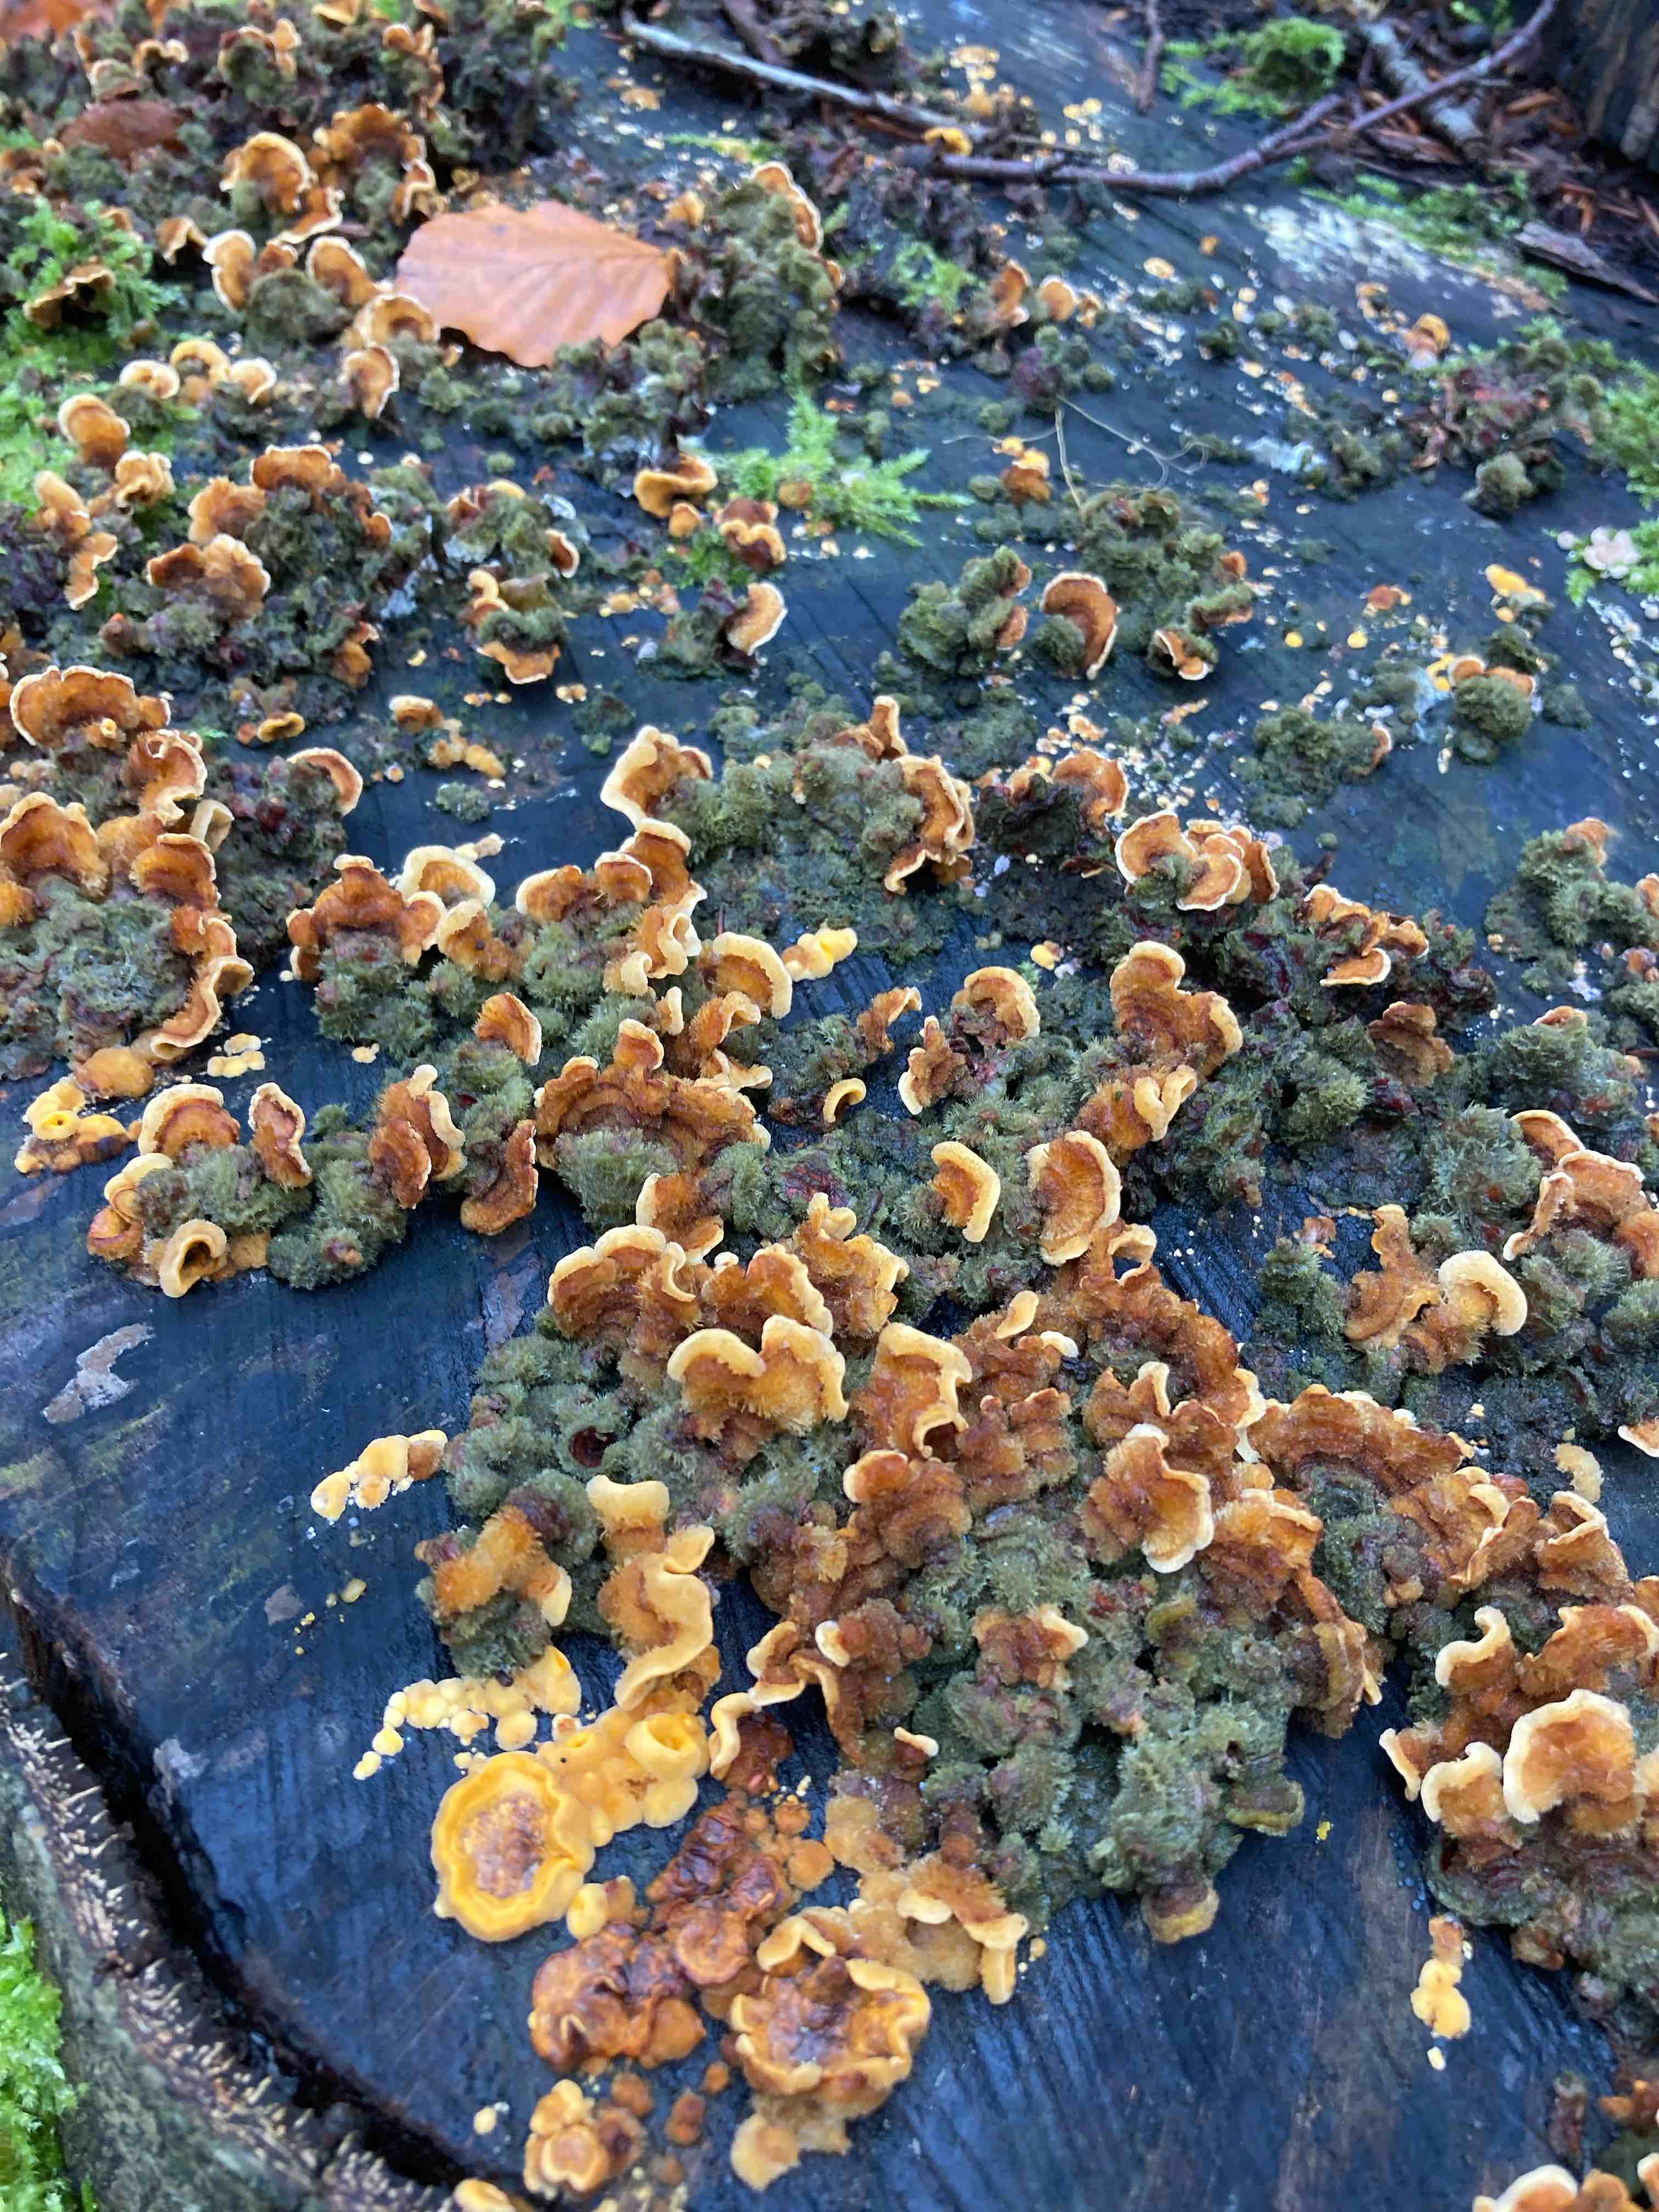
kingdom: Fungi
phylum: Basidiomycota
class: Agaricomycetes
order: Russulales
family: Stereaceae
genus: Stereum
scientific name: Stereum hirsutum
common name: håret lædersvamp
